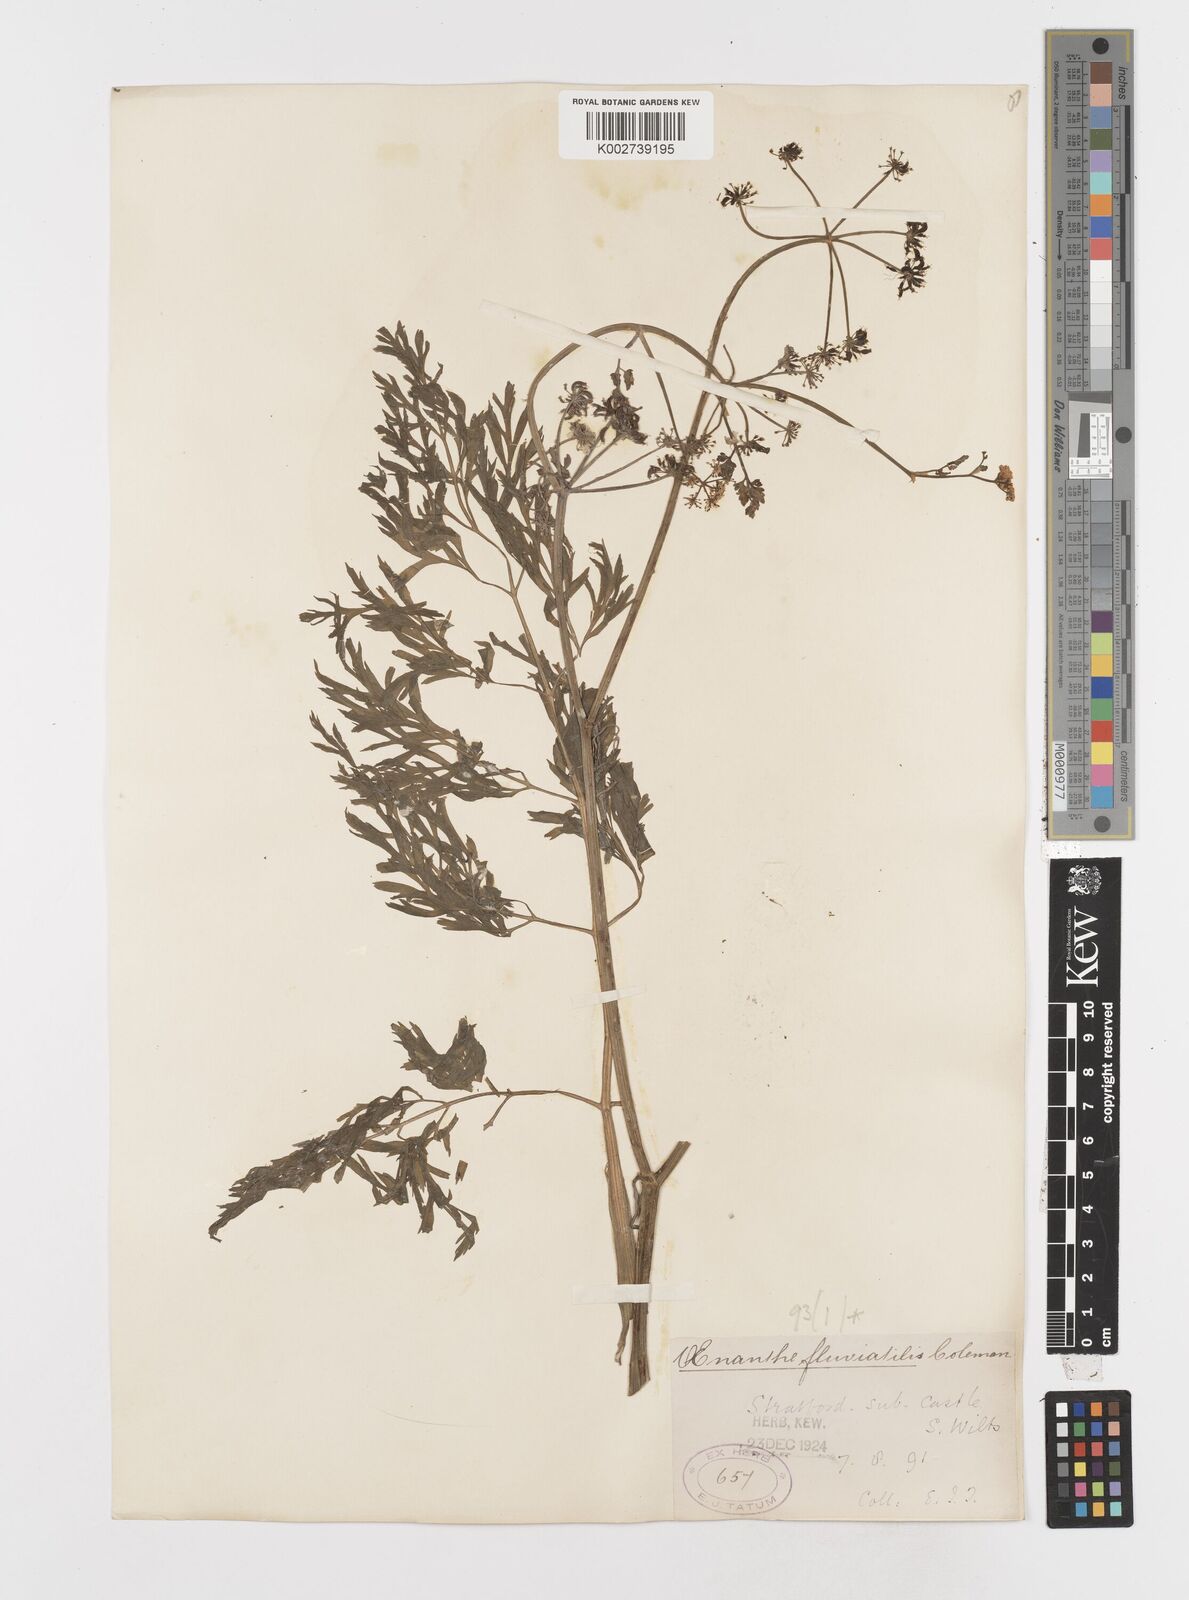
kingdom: Plantae
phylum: Tracheophyta
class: Magnoliopsida
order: Apiales
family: Apiaceae
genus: Oenanthe
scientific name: Oenanthe fluviatilis
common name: River water-dropwort
